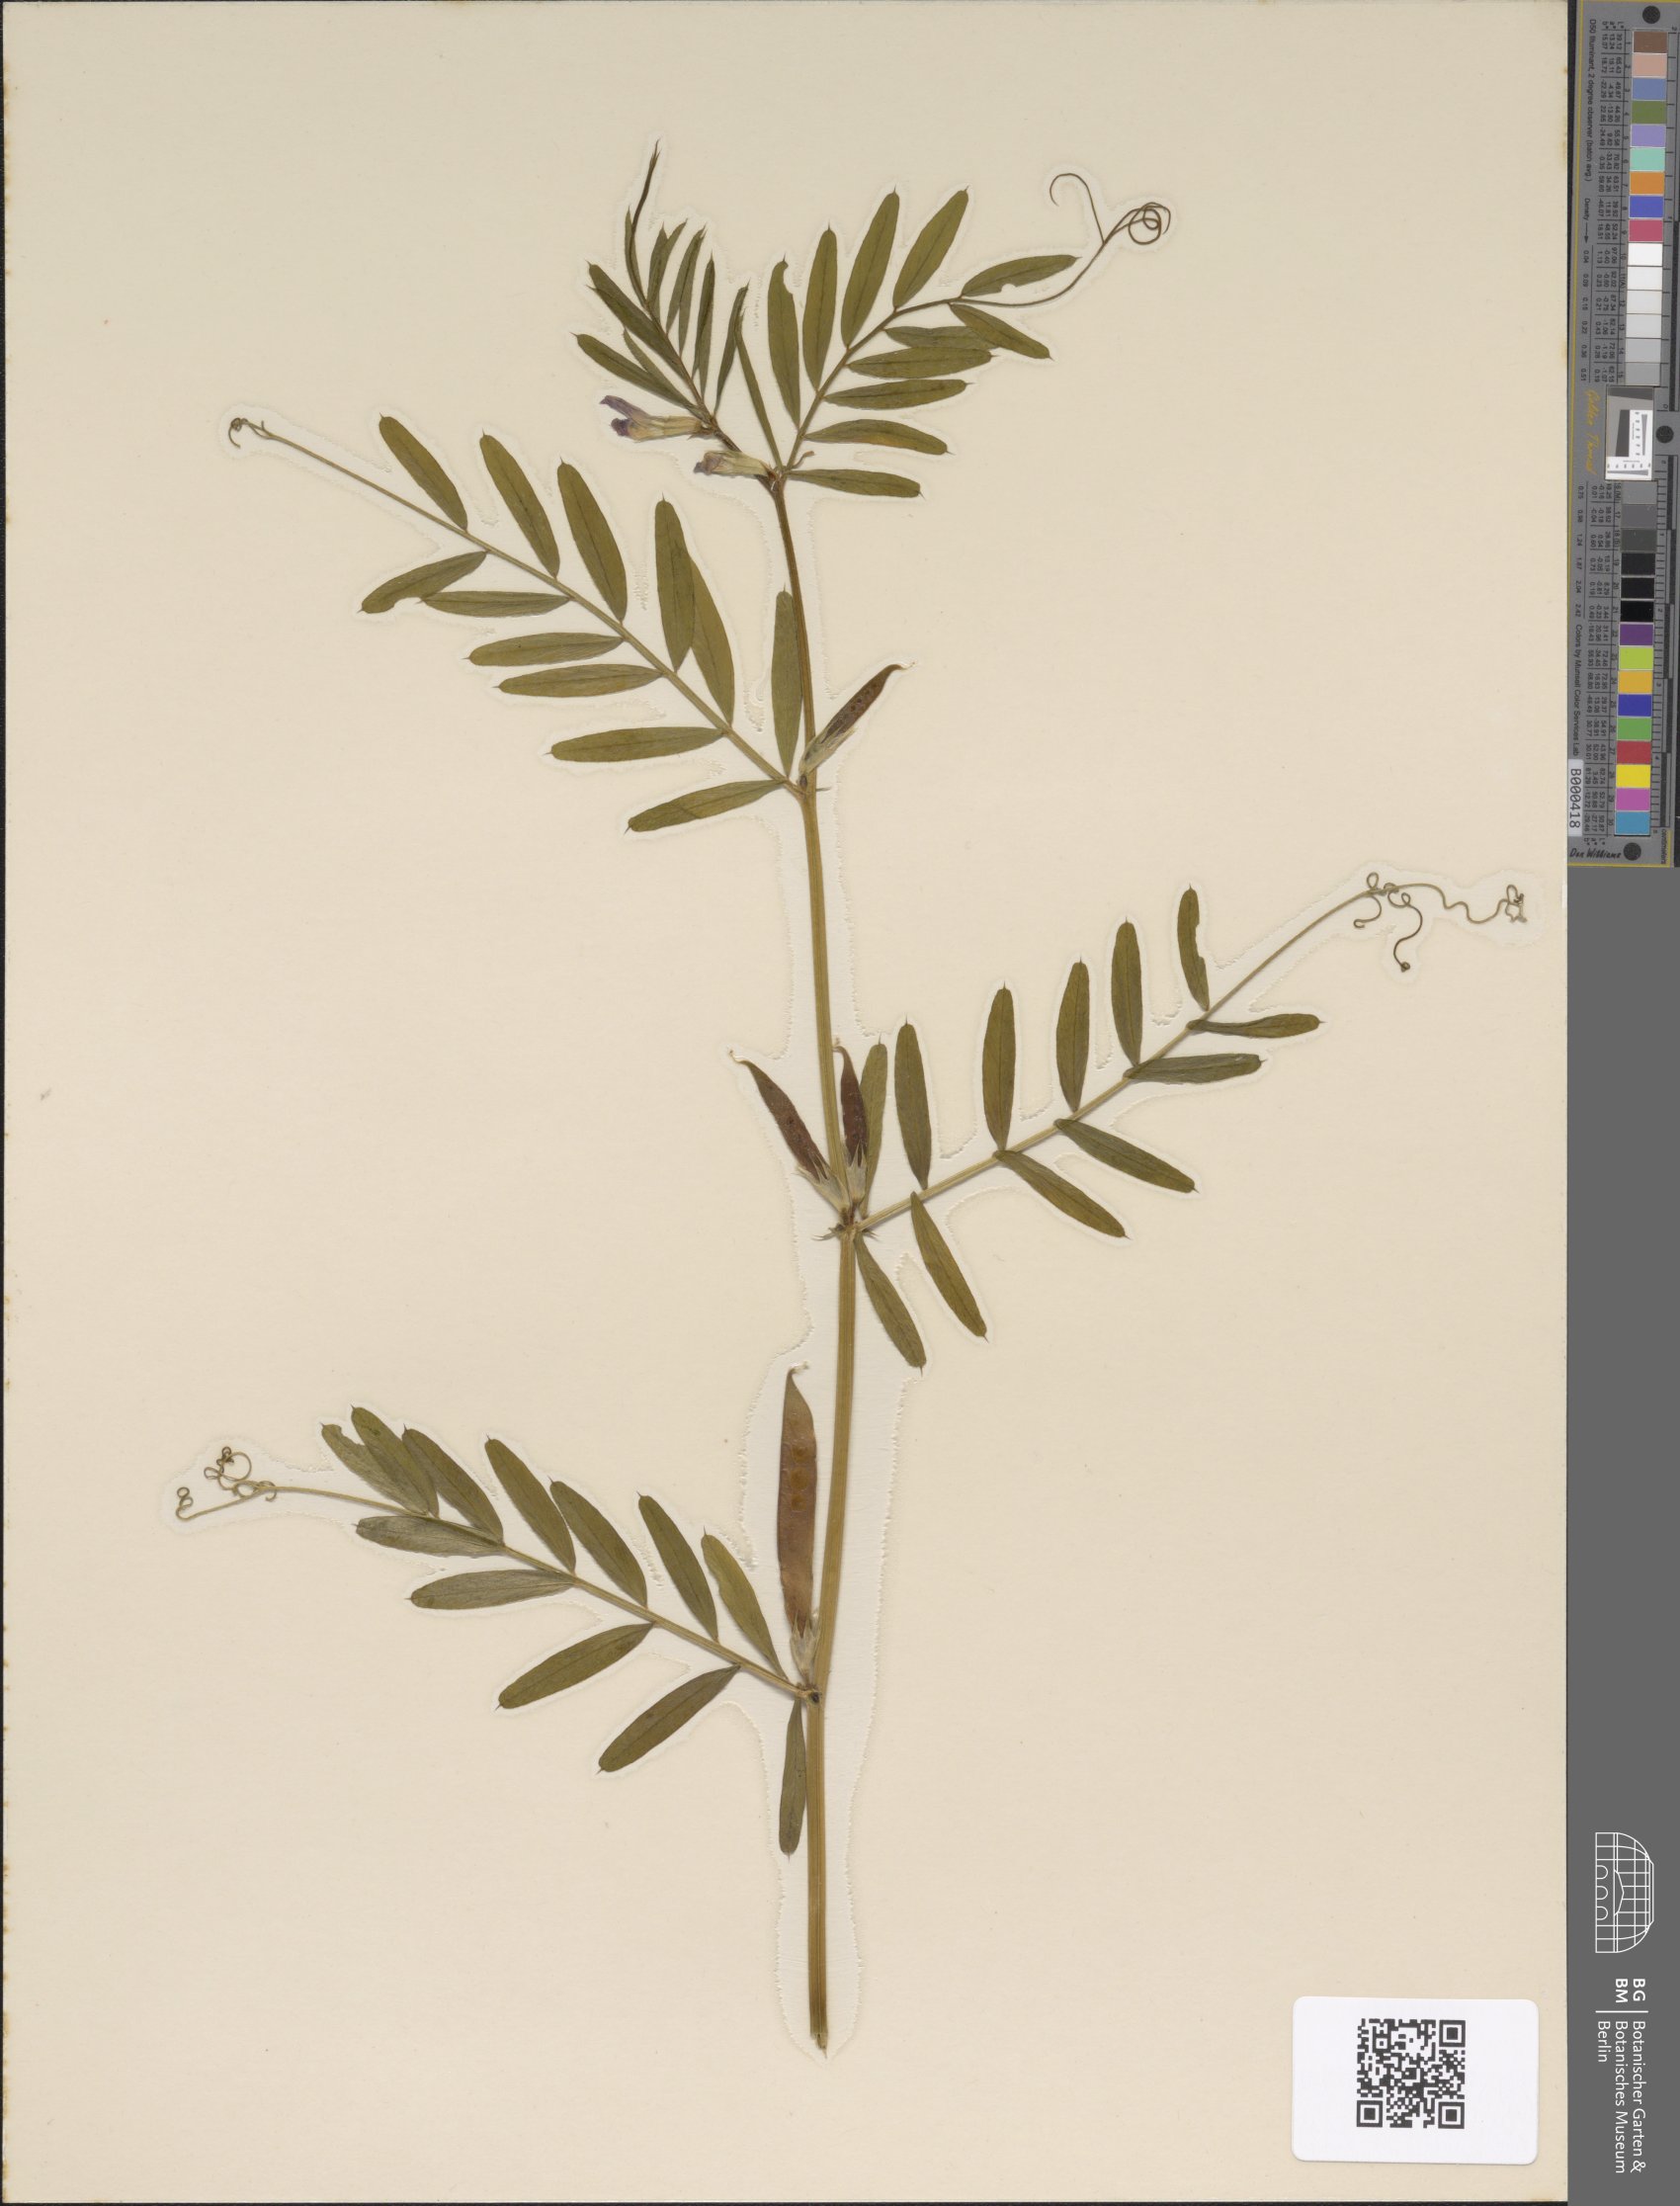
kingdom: Plantae
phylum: Tracheophyta
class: Magnoliopsida
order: Fabales
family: Fabaceae
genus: Vicia
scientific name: Vicia sativa
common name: Garden vetch
